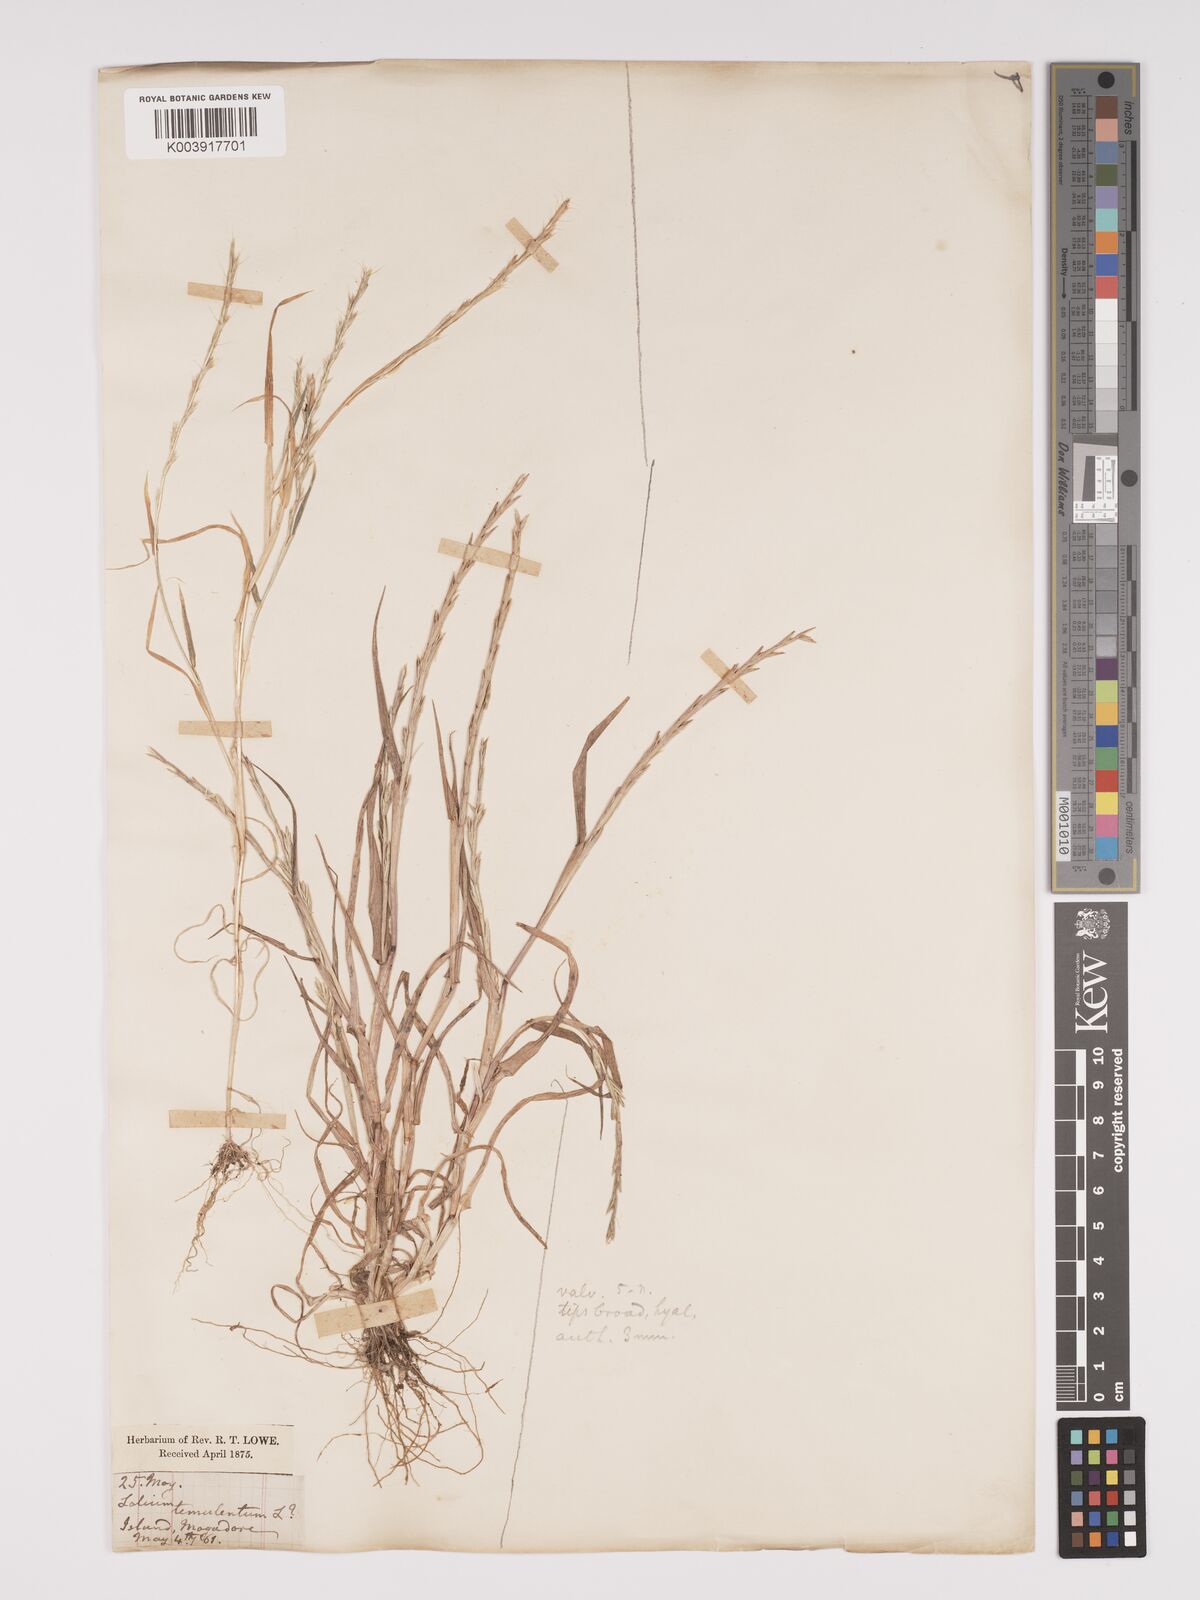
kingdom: Plantae
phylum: Tracheophyta
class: Liliopsida
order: Poales
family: Poaceae
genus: Lolium
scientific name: Lolium rigidum
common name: Wimmera ryegrass
